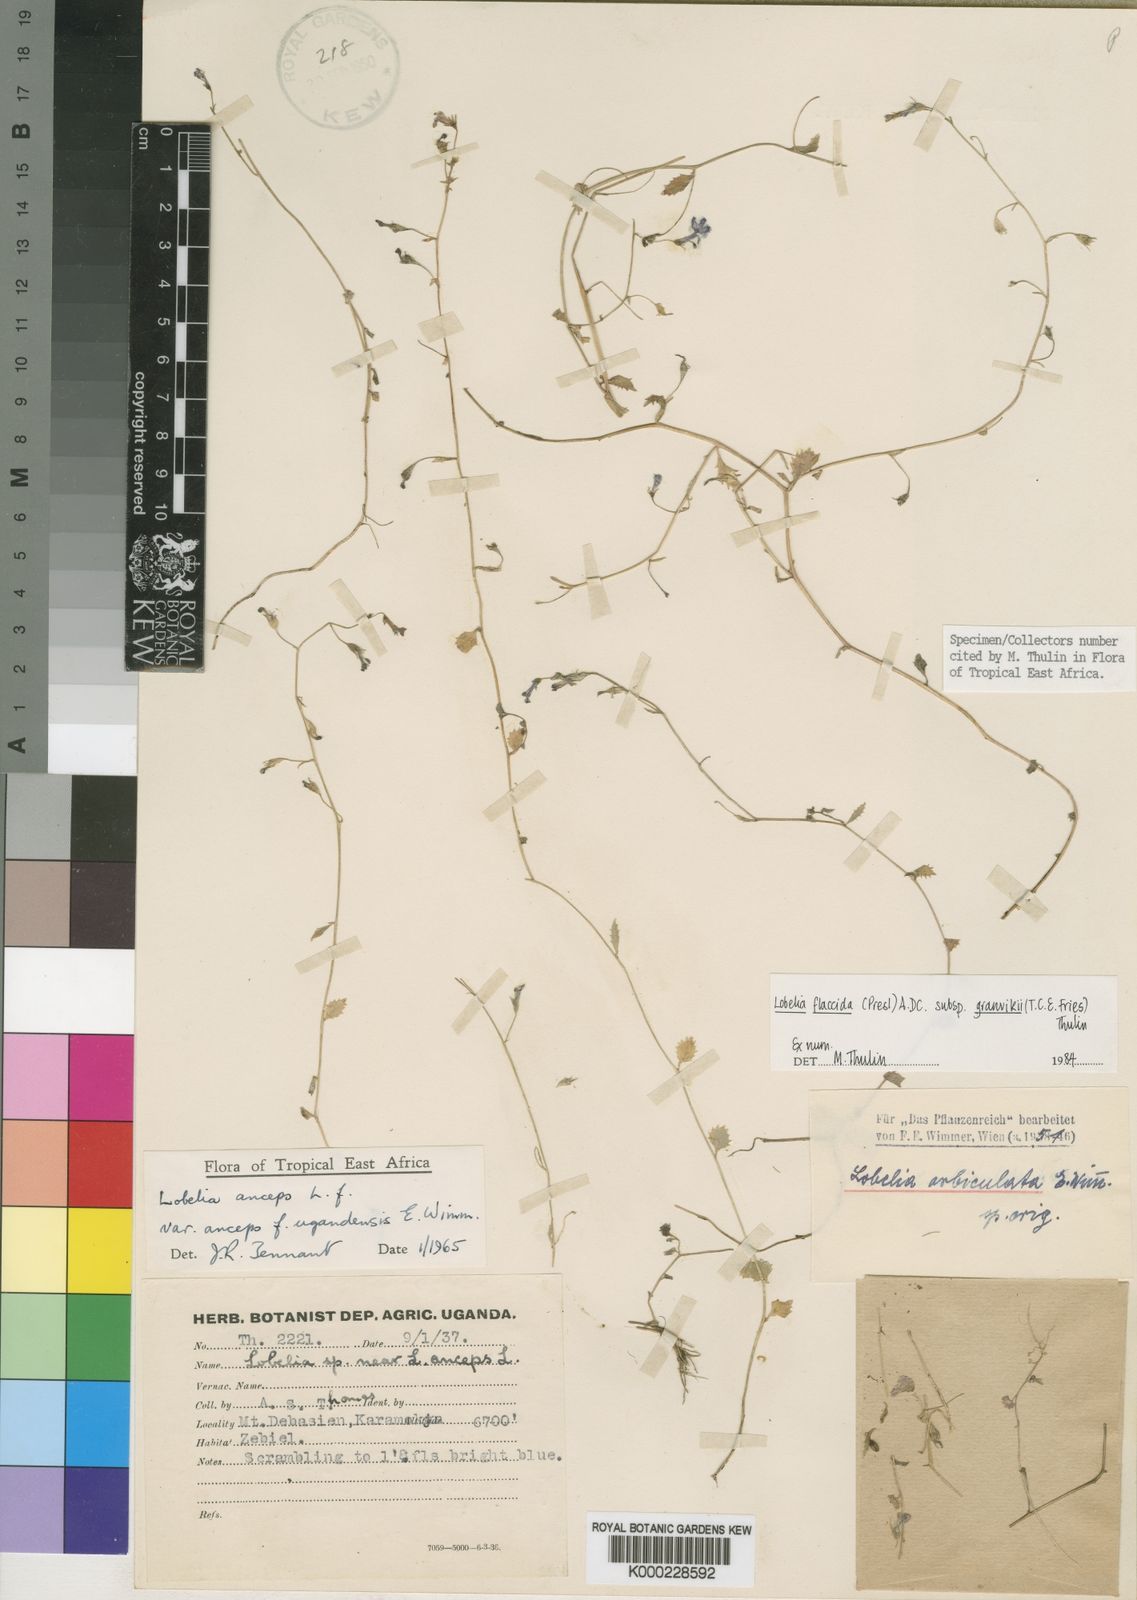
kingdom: Plantae
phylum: Tracheophyta
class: Magnoliopsida
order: Asterales
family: Campanulaceae
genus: Lobelia
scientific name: Lobelia flaccida
